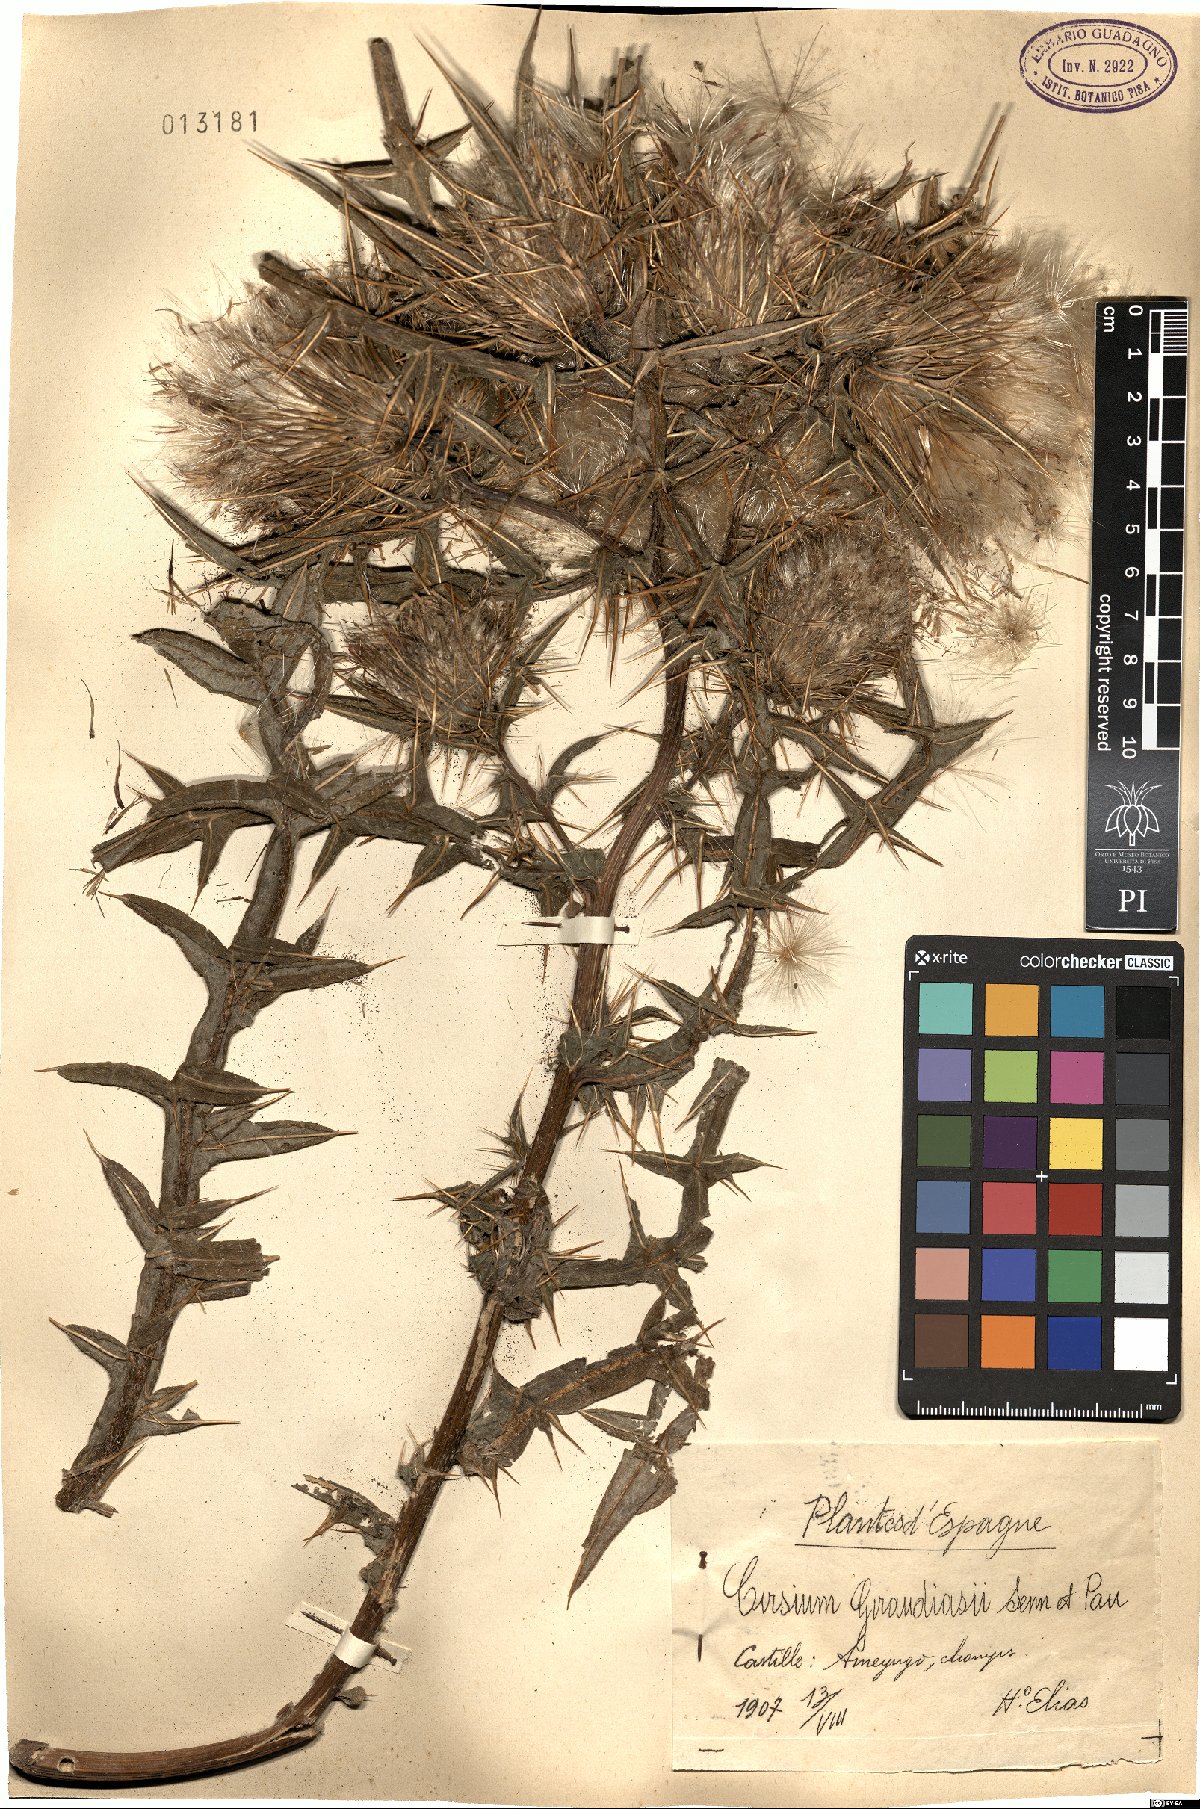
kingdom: Plantae
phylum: Tracheophyta
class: Magnoliopsida
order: Asterales
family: Asteraceae
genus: Lophiolepis
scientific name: Lophiolepis richteriana
